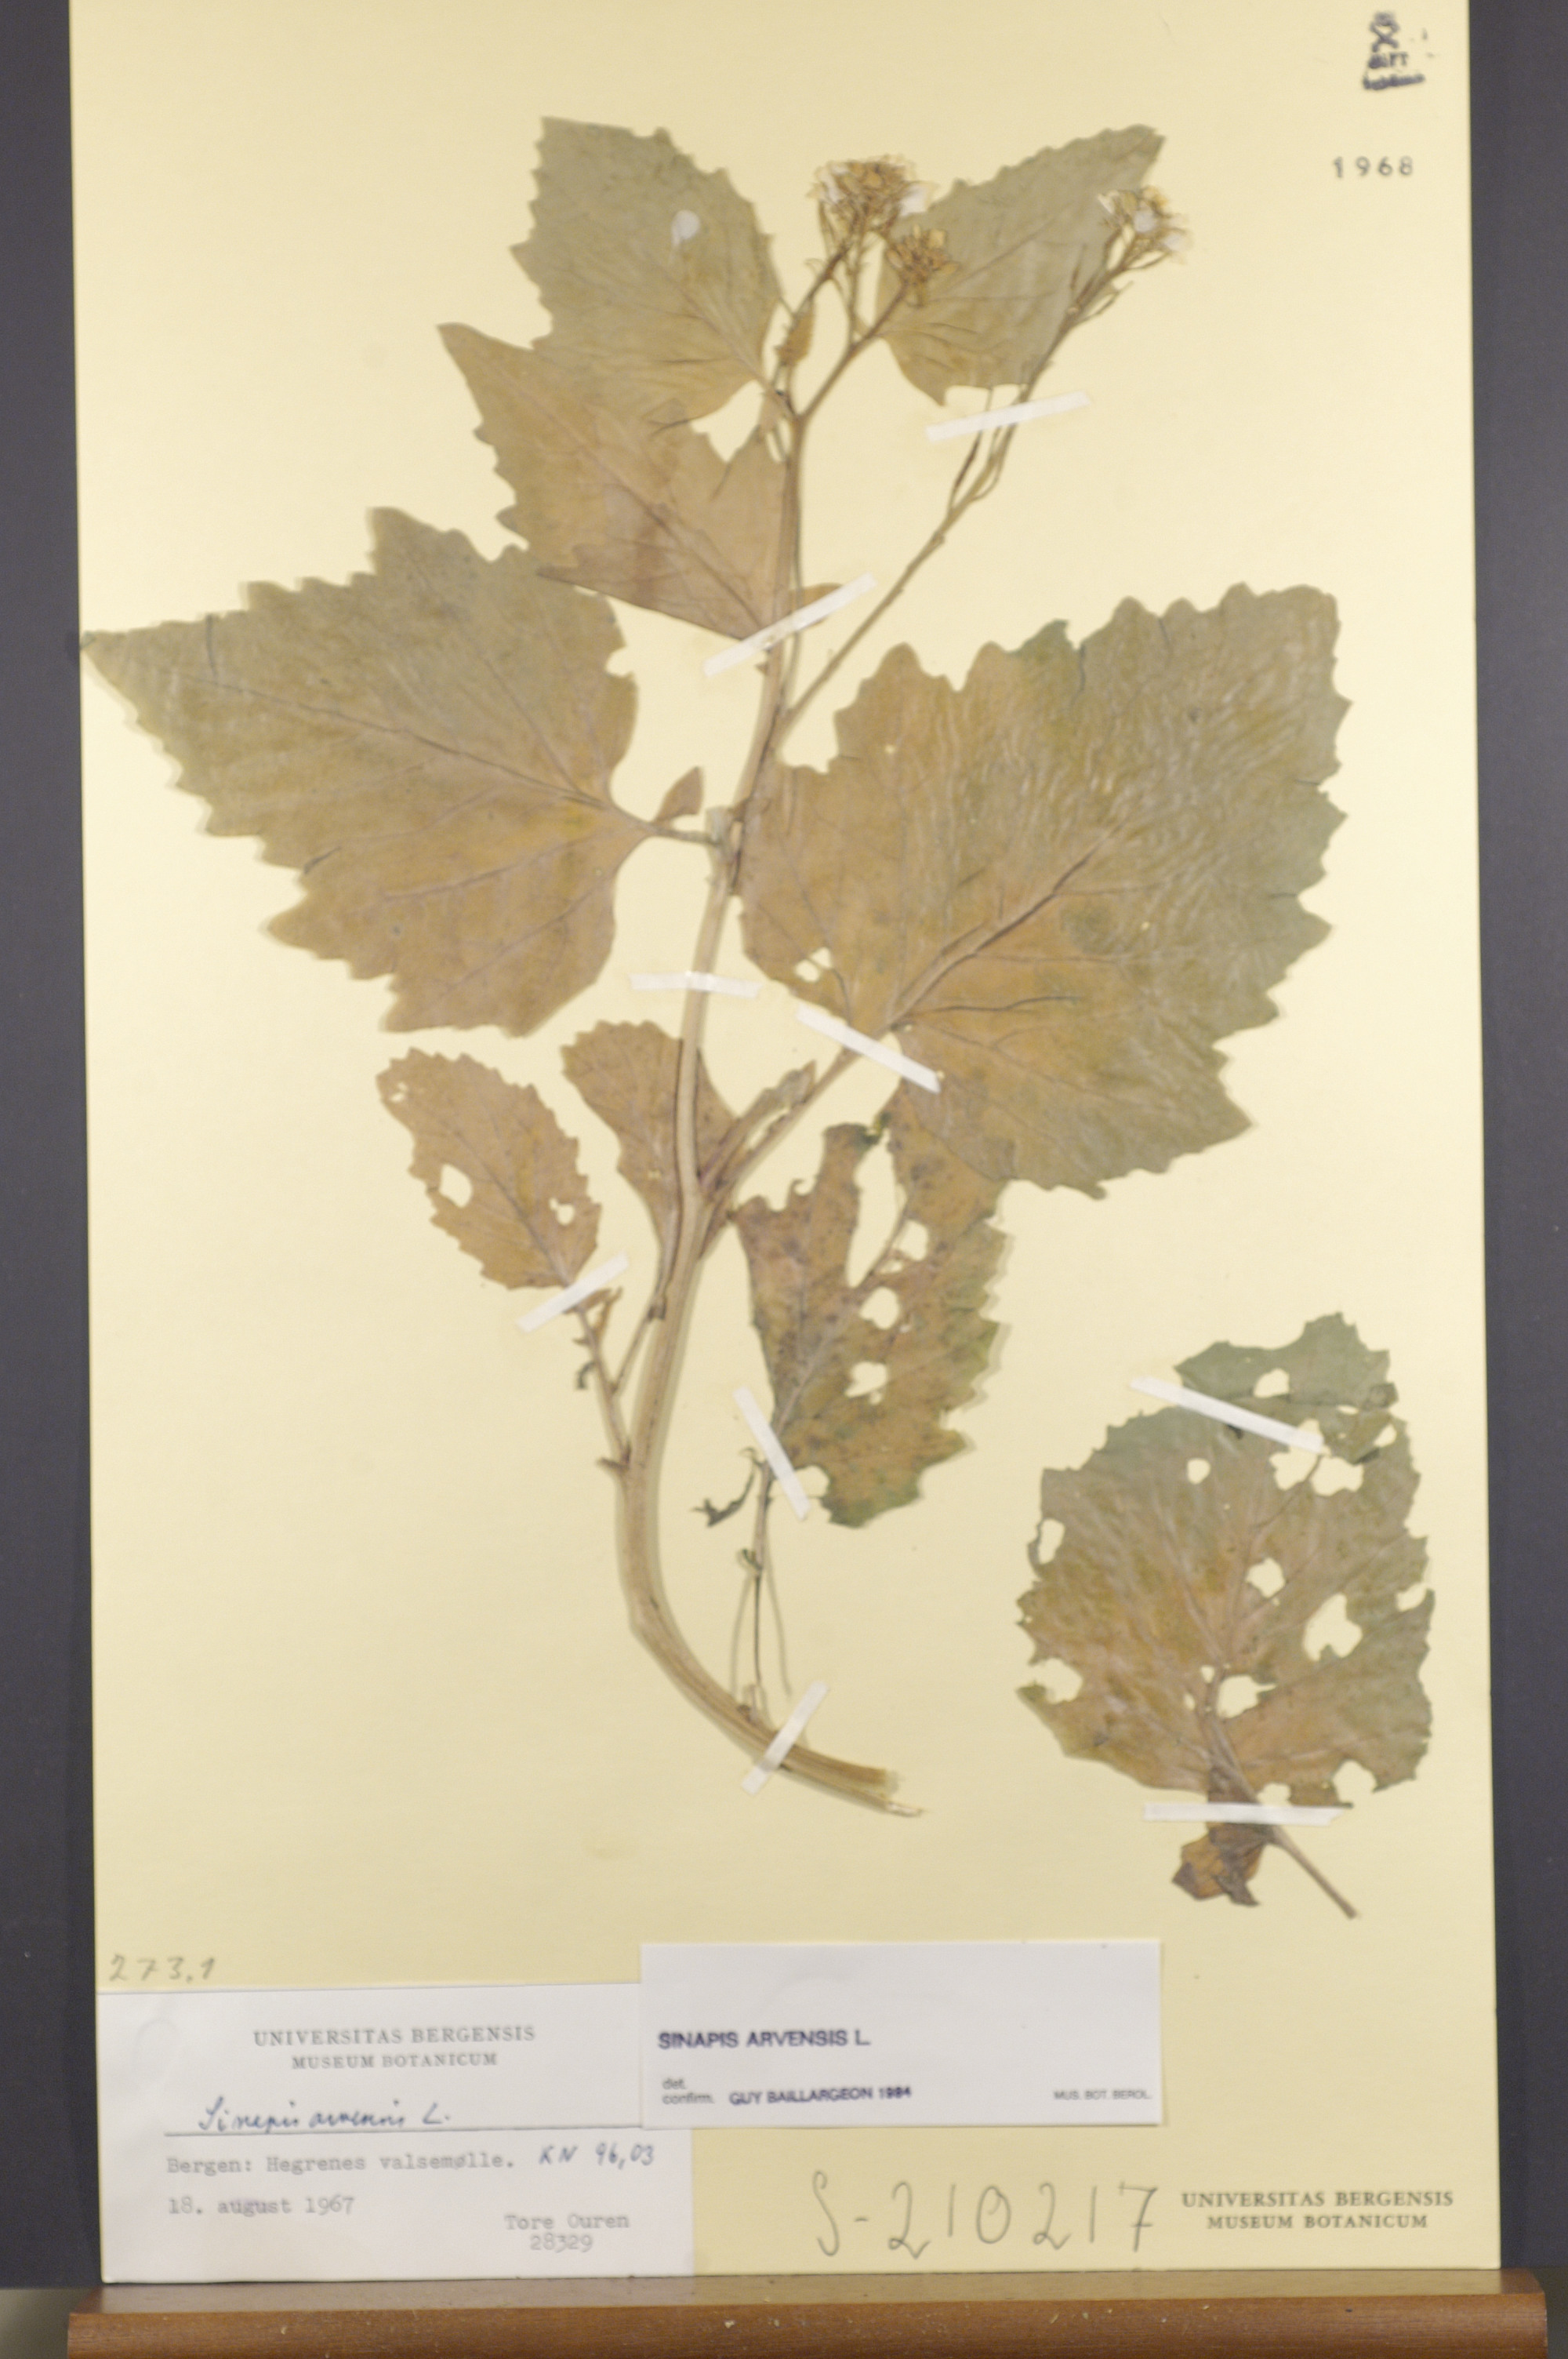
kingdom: Plantae
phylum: Tracheophyta
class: Magnoliopsida
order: Brassicales
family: Brassicaceae
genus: Sinapis
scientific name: Sinapis arvensis
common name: Charlock
